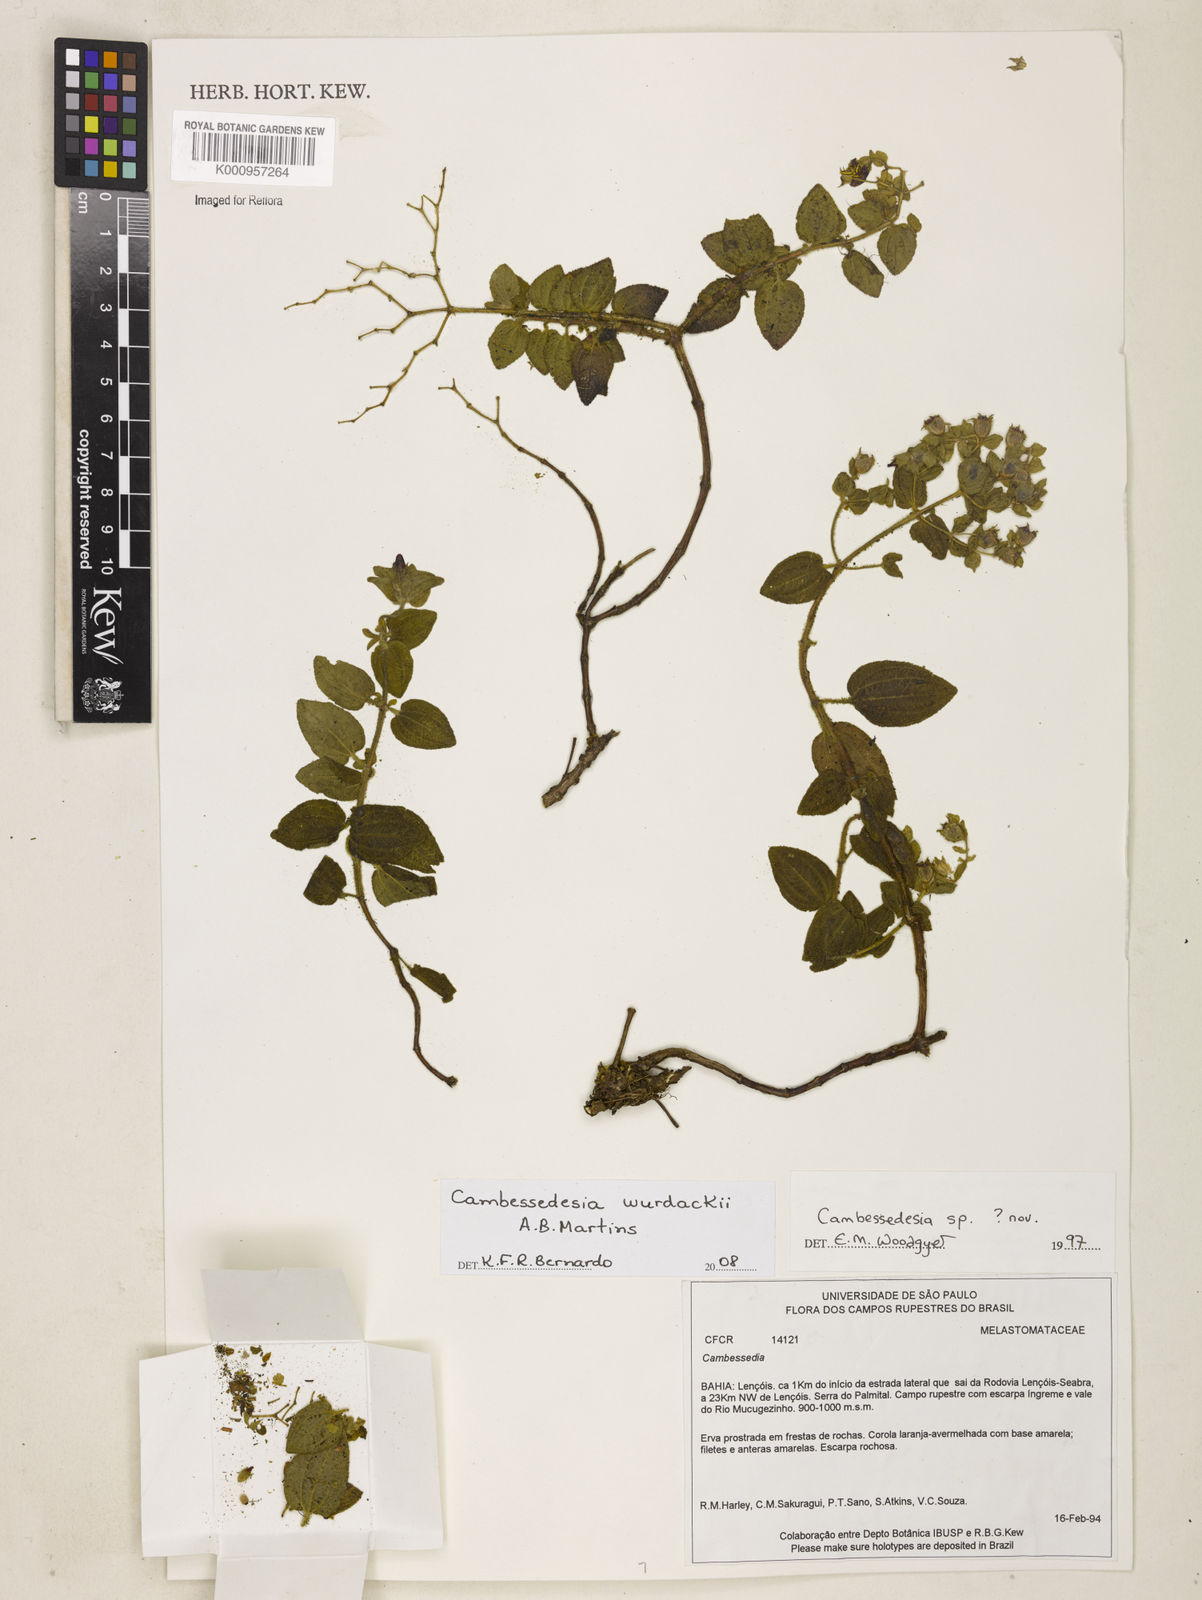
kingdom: Plantae
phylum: Tracheophyta
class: Magnoliopsida
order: Myrtales
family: Melastomataceae
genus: Cambessedesia
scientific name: Cambessedesia wurdackii
